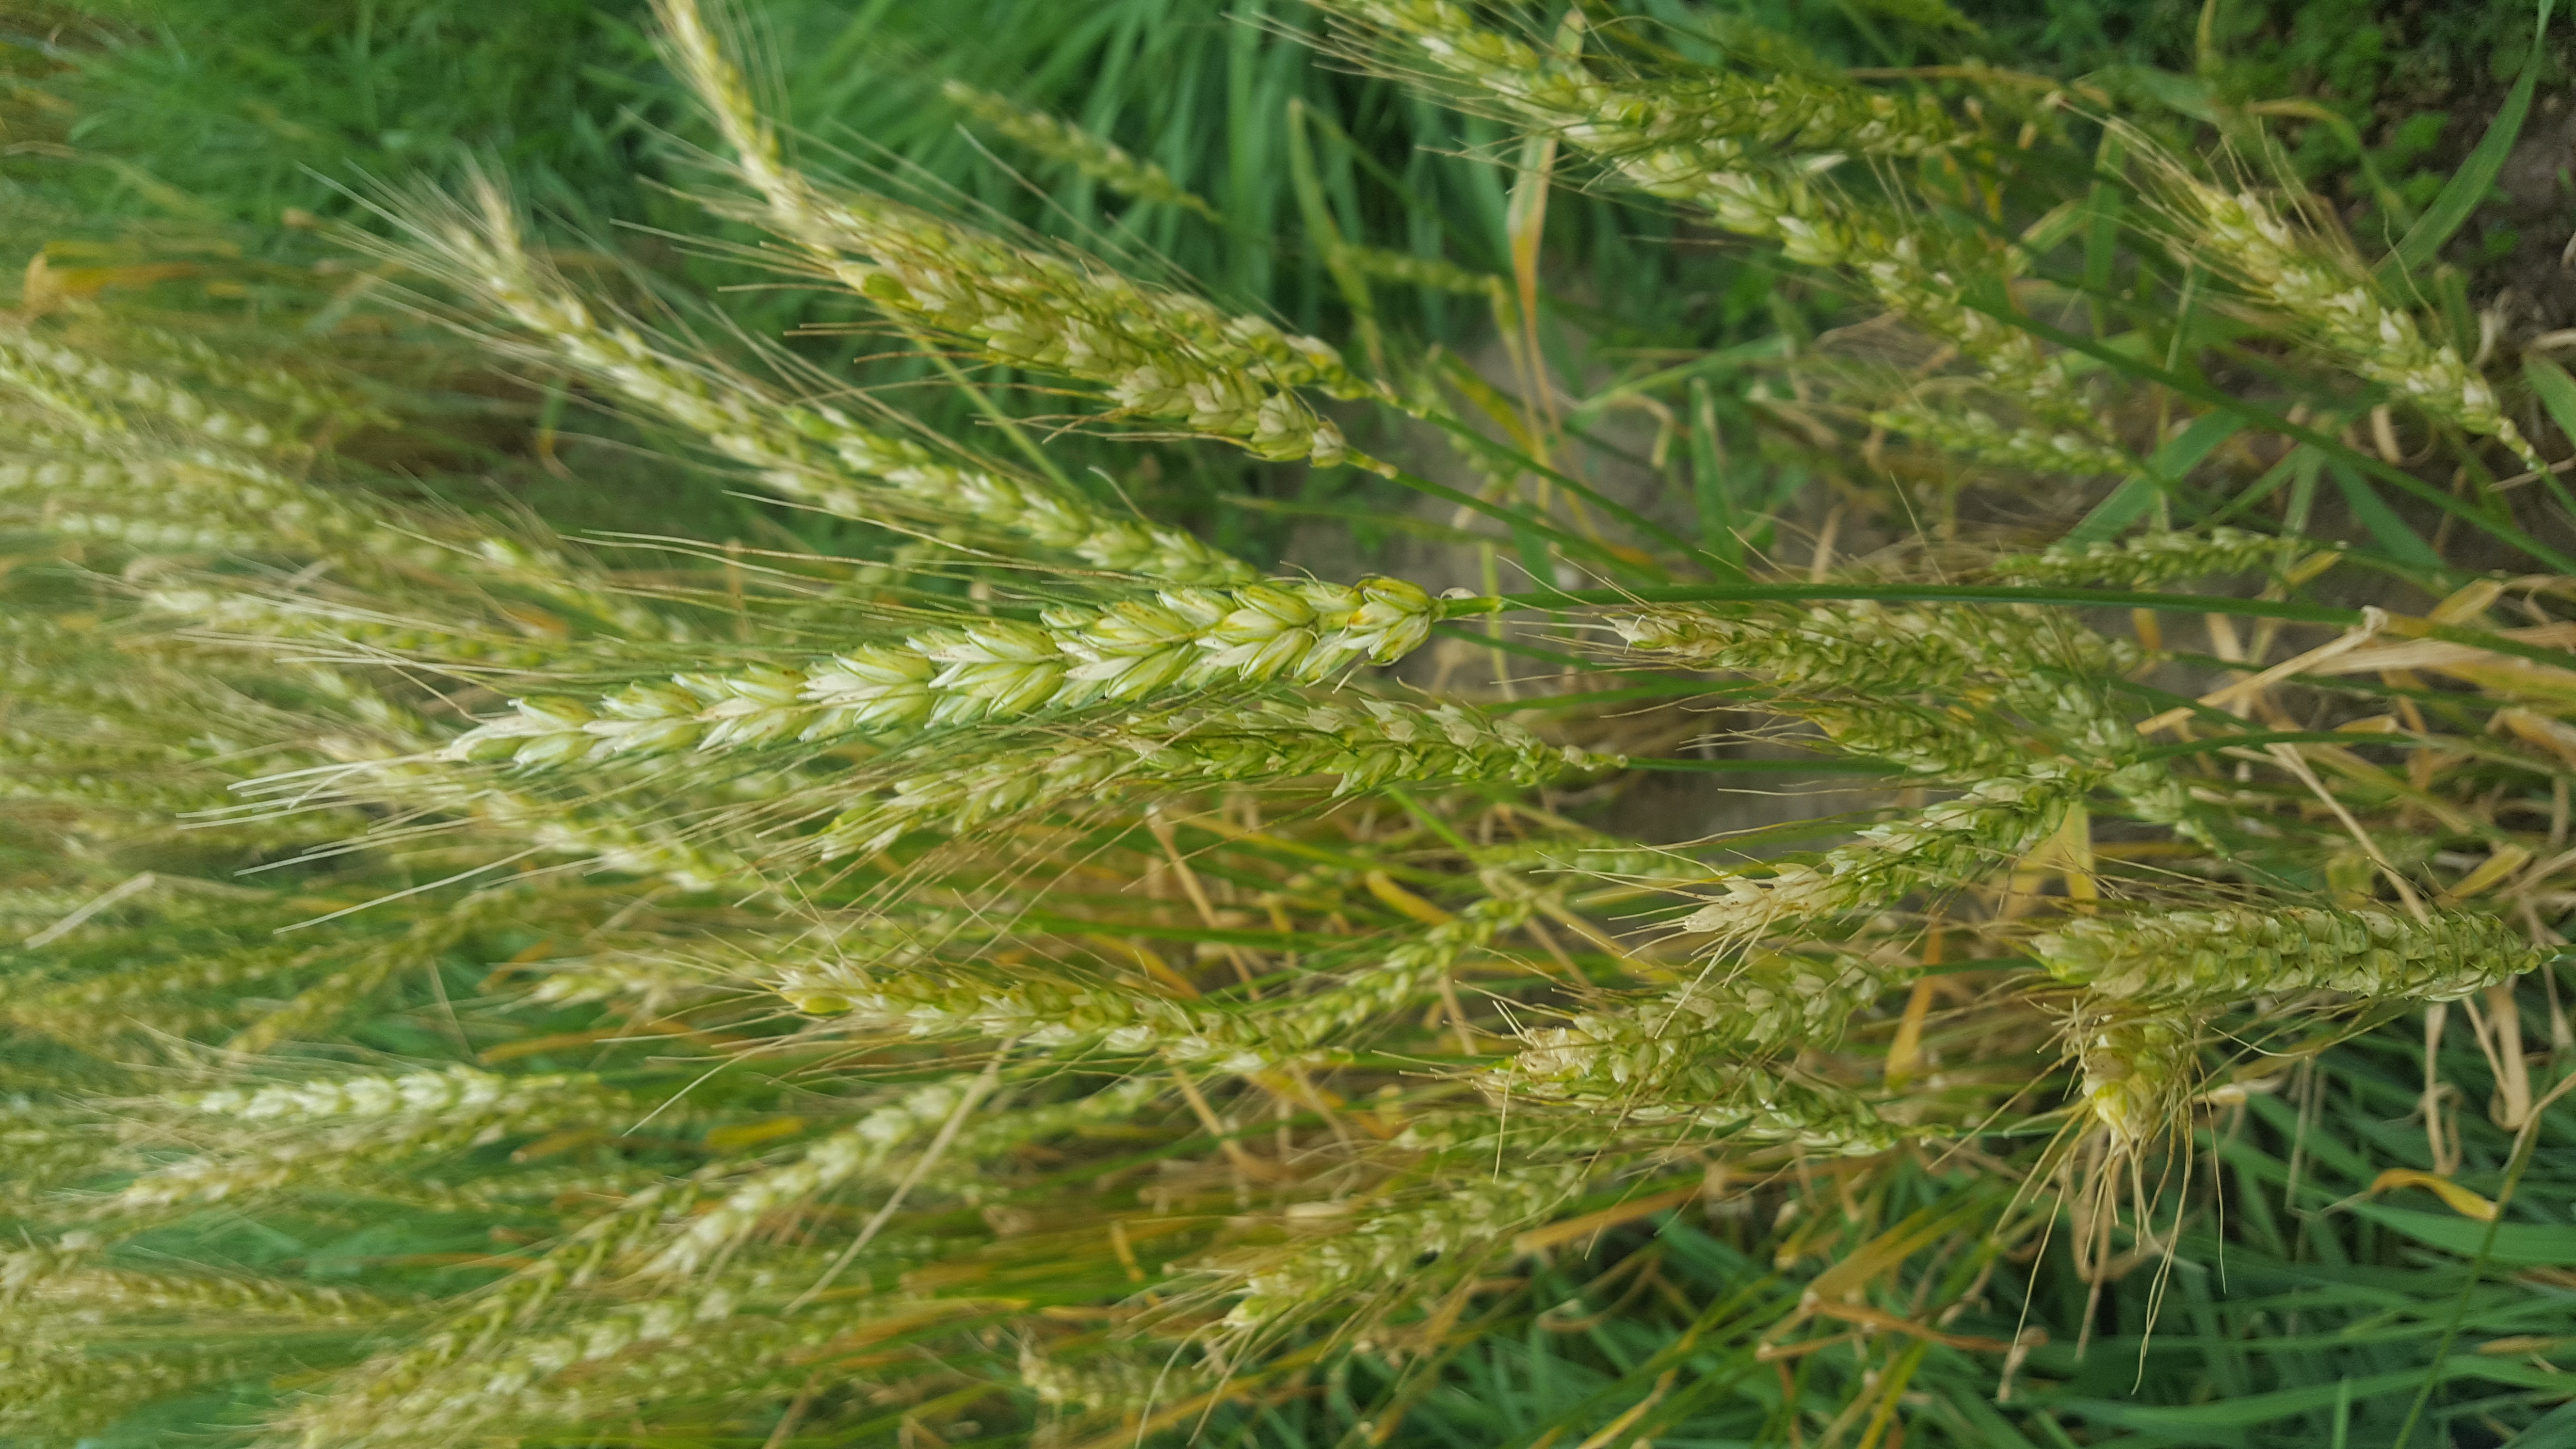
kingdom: Plantae
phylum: Tracheophyta
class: Liliopsida
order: Poales
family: Poaceae
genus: Triticum
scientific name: Triticum aestivum
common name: Common wheat
